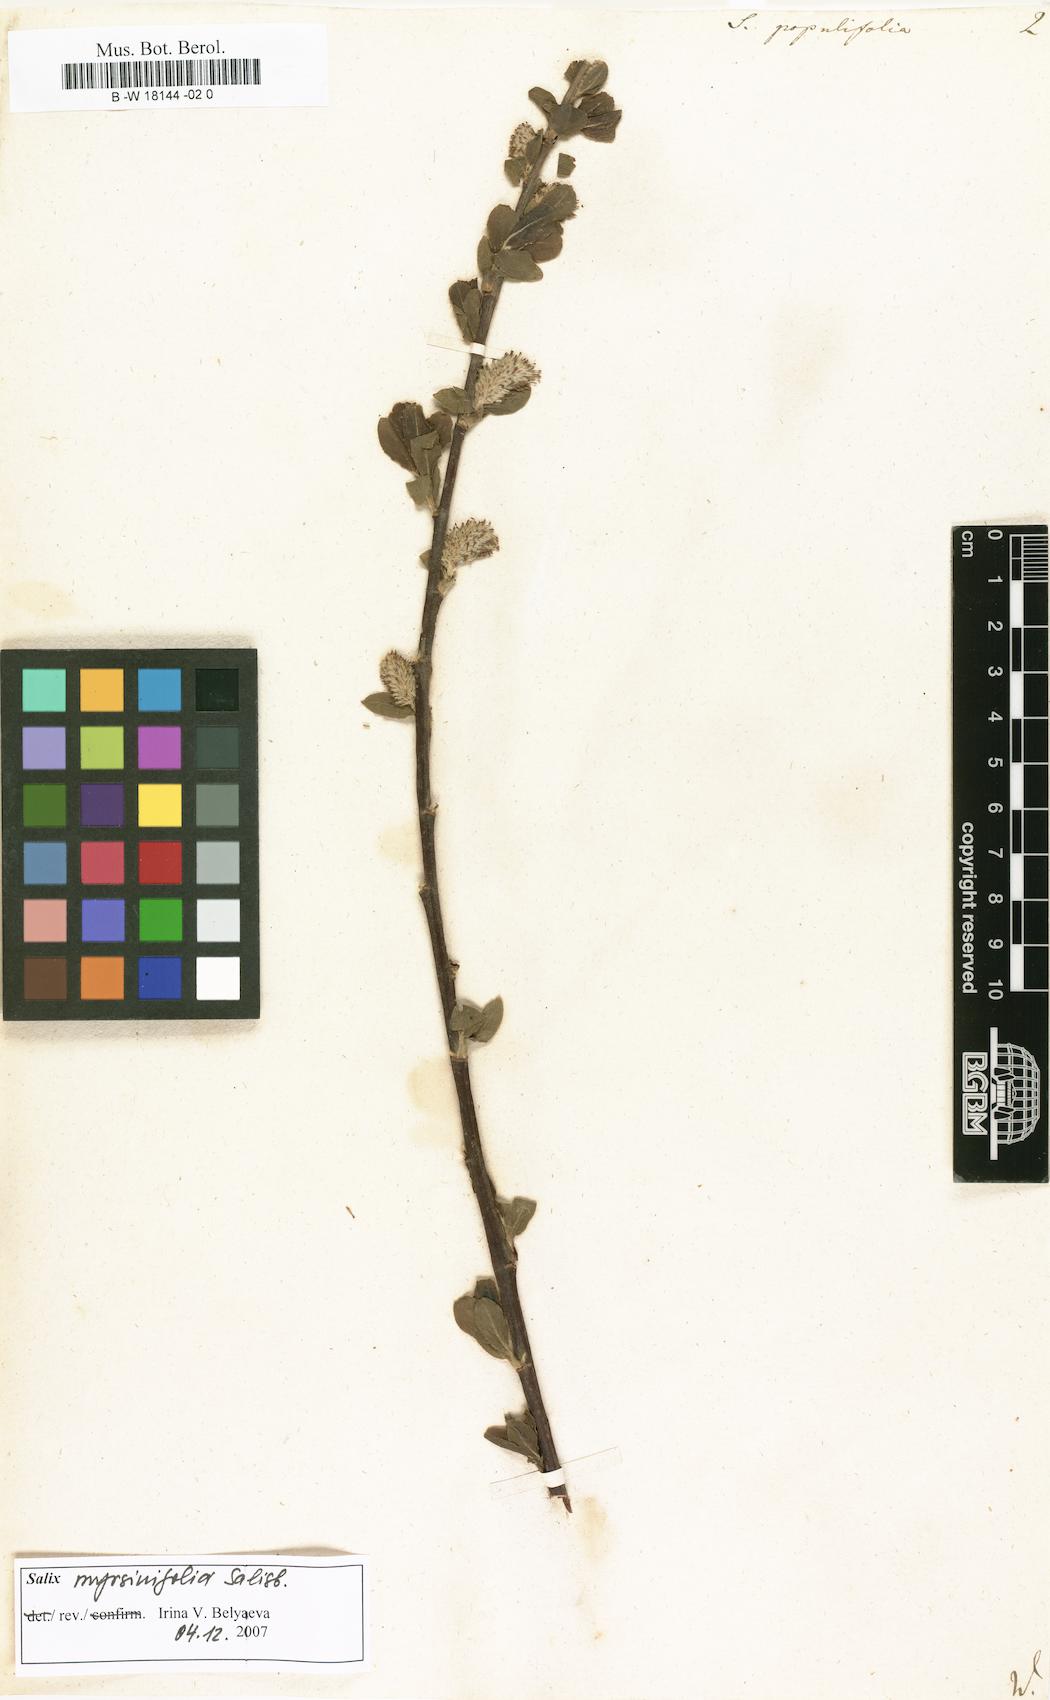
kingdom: Plantae
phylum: Tracheophyta
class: Magnoliopsida
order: Malpighiales
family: Salicaceae
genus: Salix
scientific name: Salix
